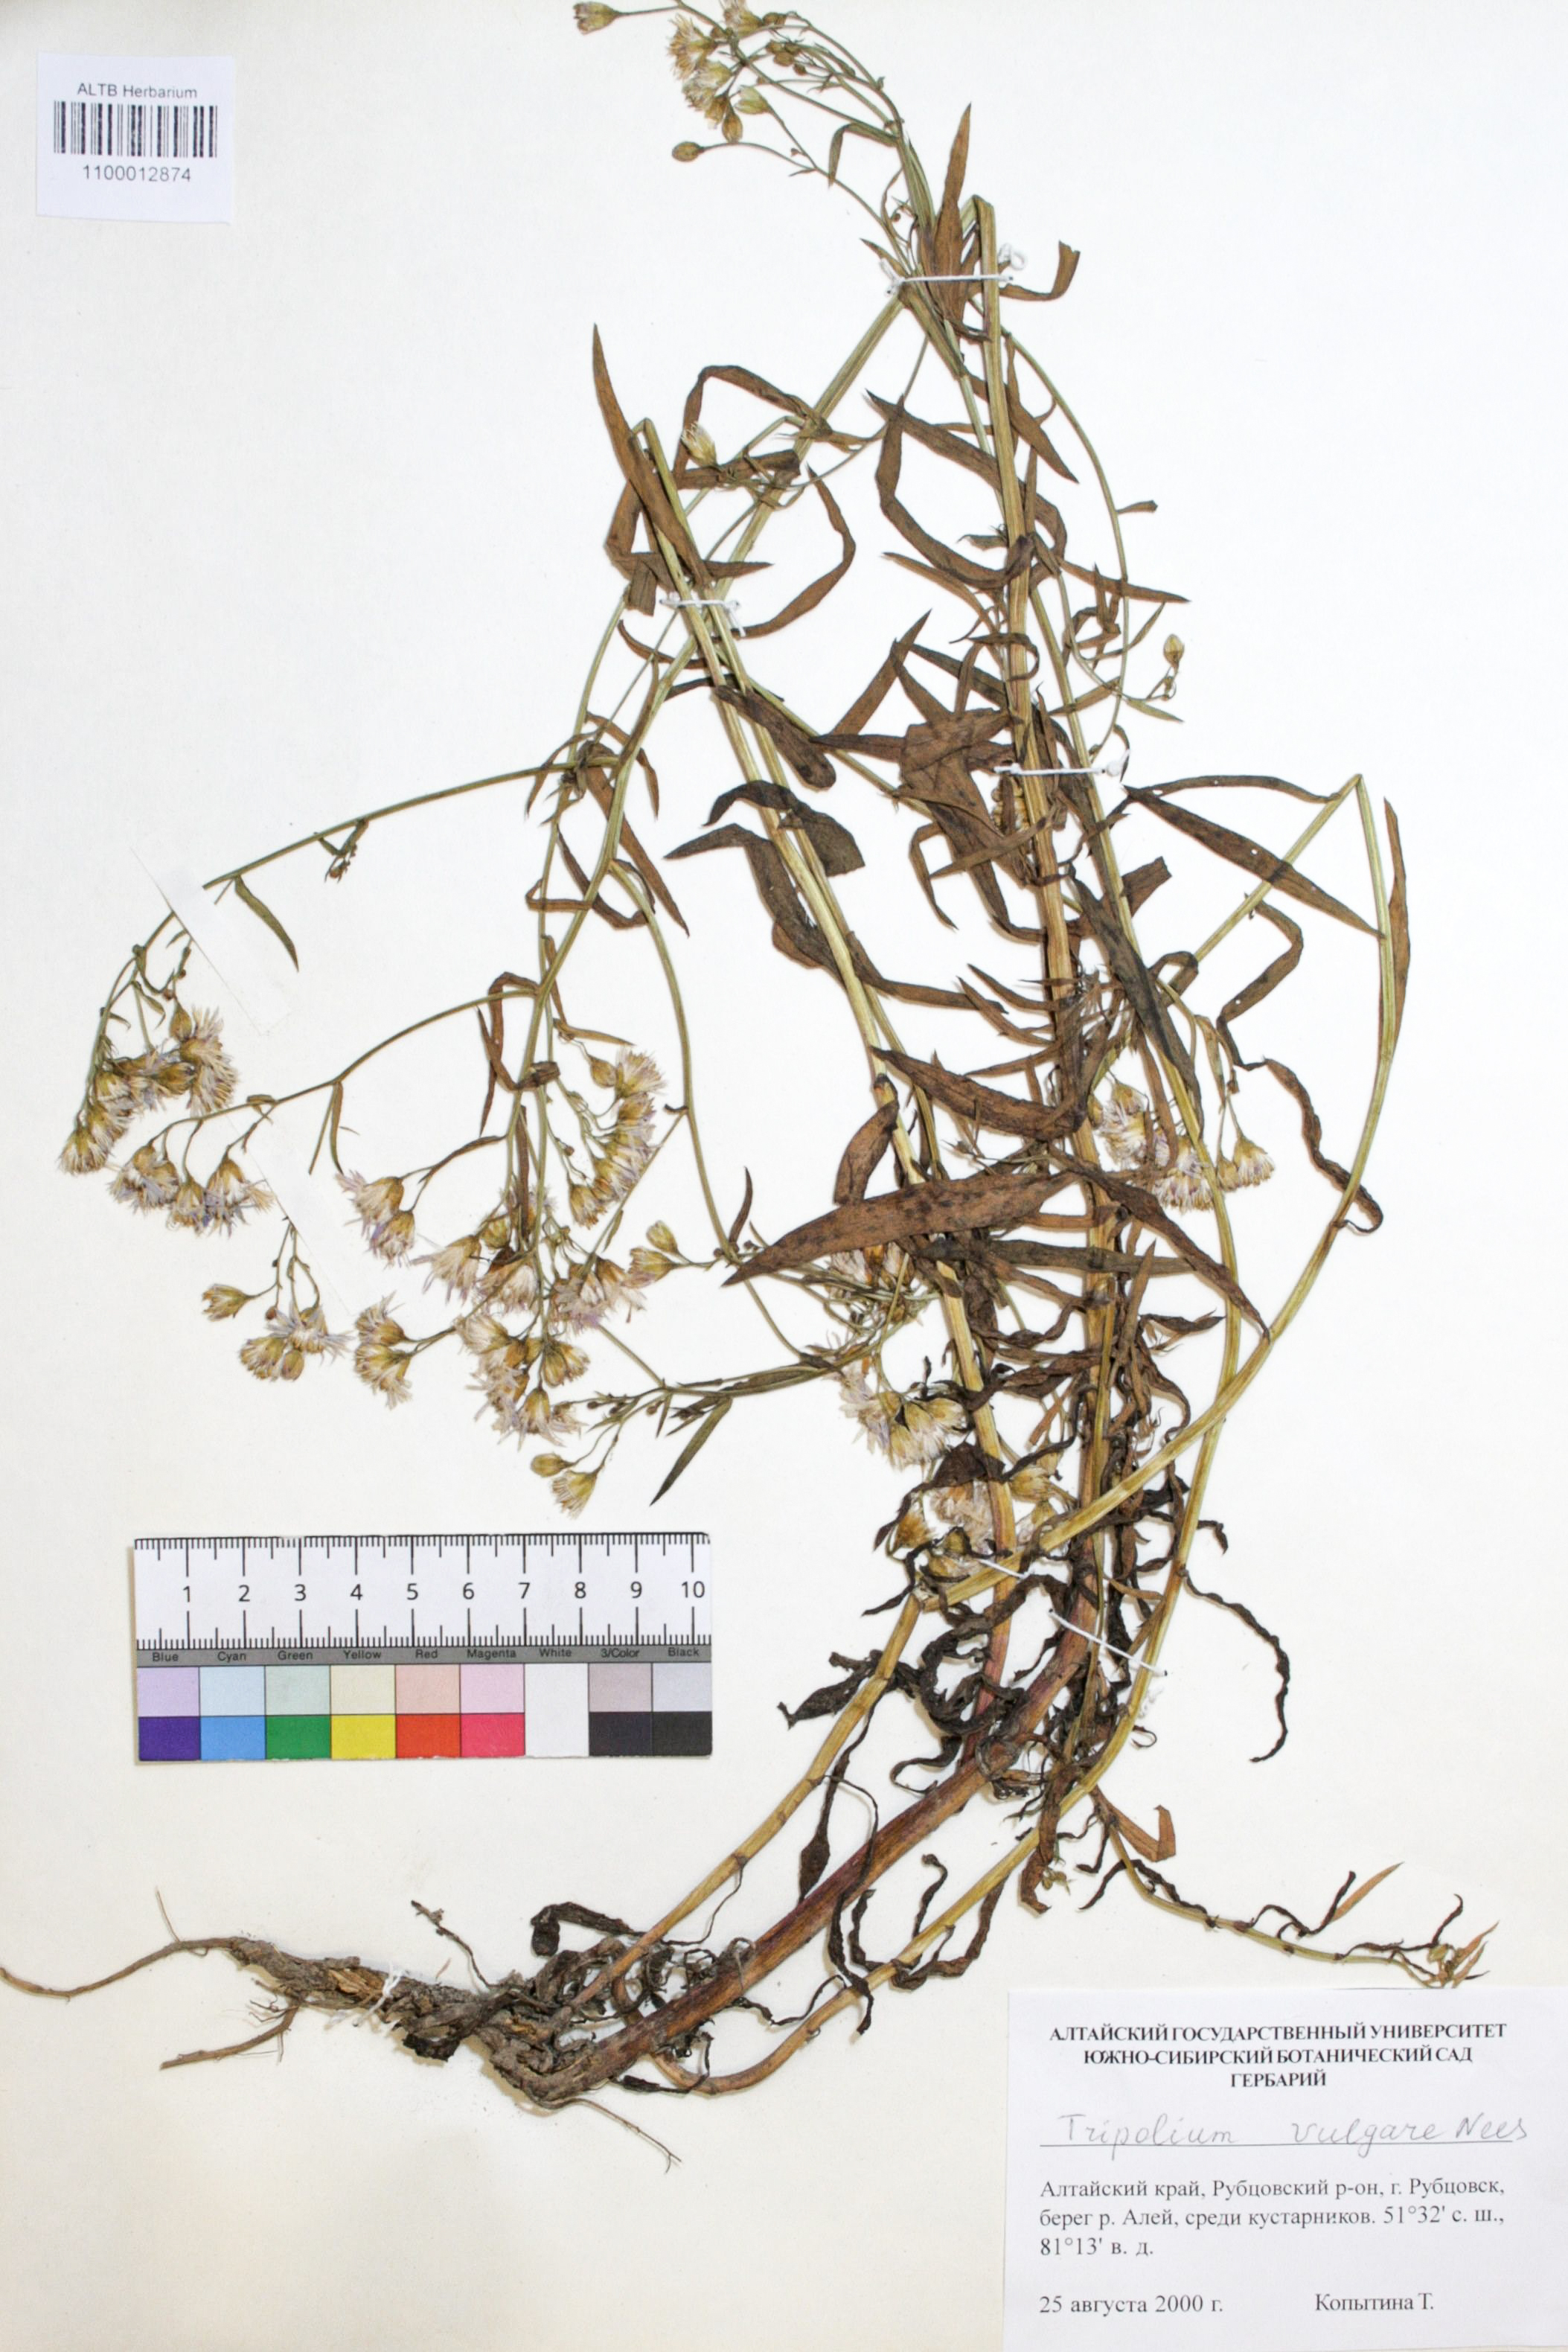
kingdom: Plantae
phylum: Tracheophyta
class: Magnoliopsida
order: Asterales
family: Asteraceae
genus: Tripolium
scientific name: Tripolium pannonicum
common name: Sea aster
